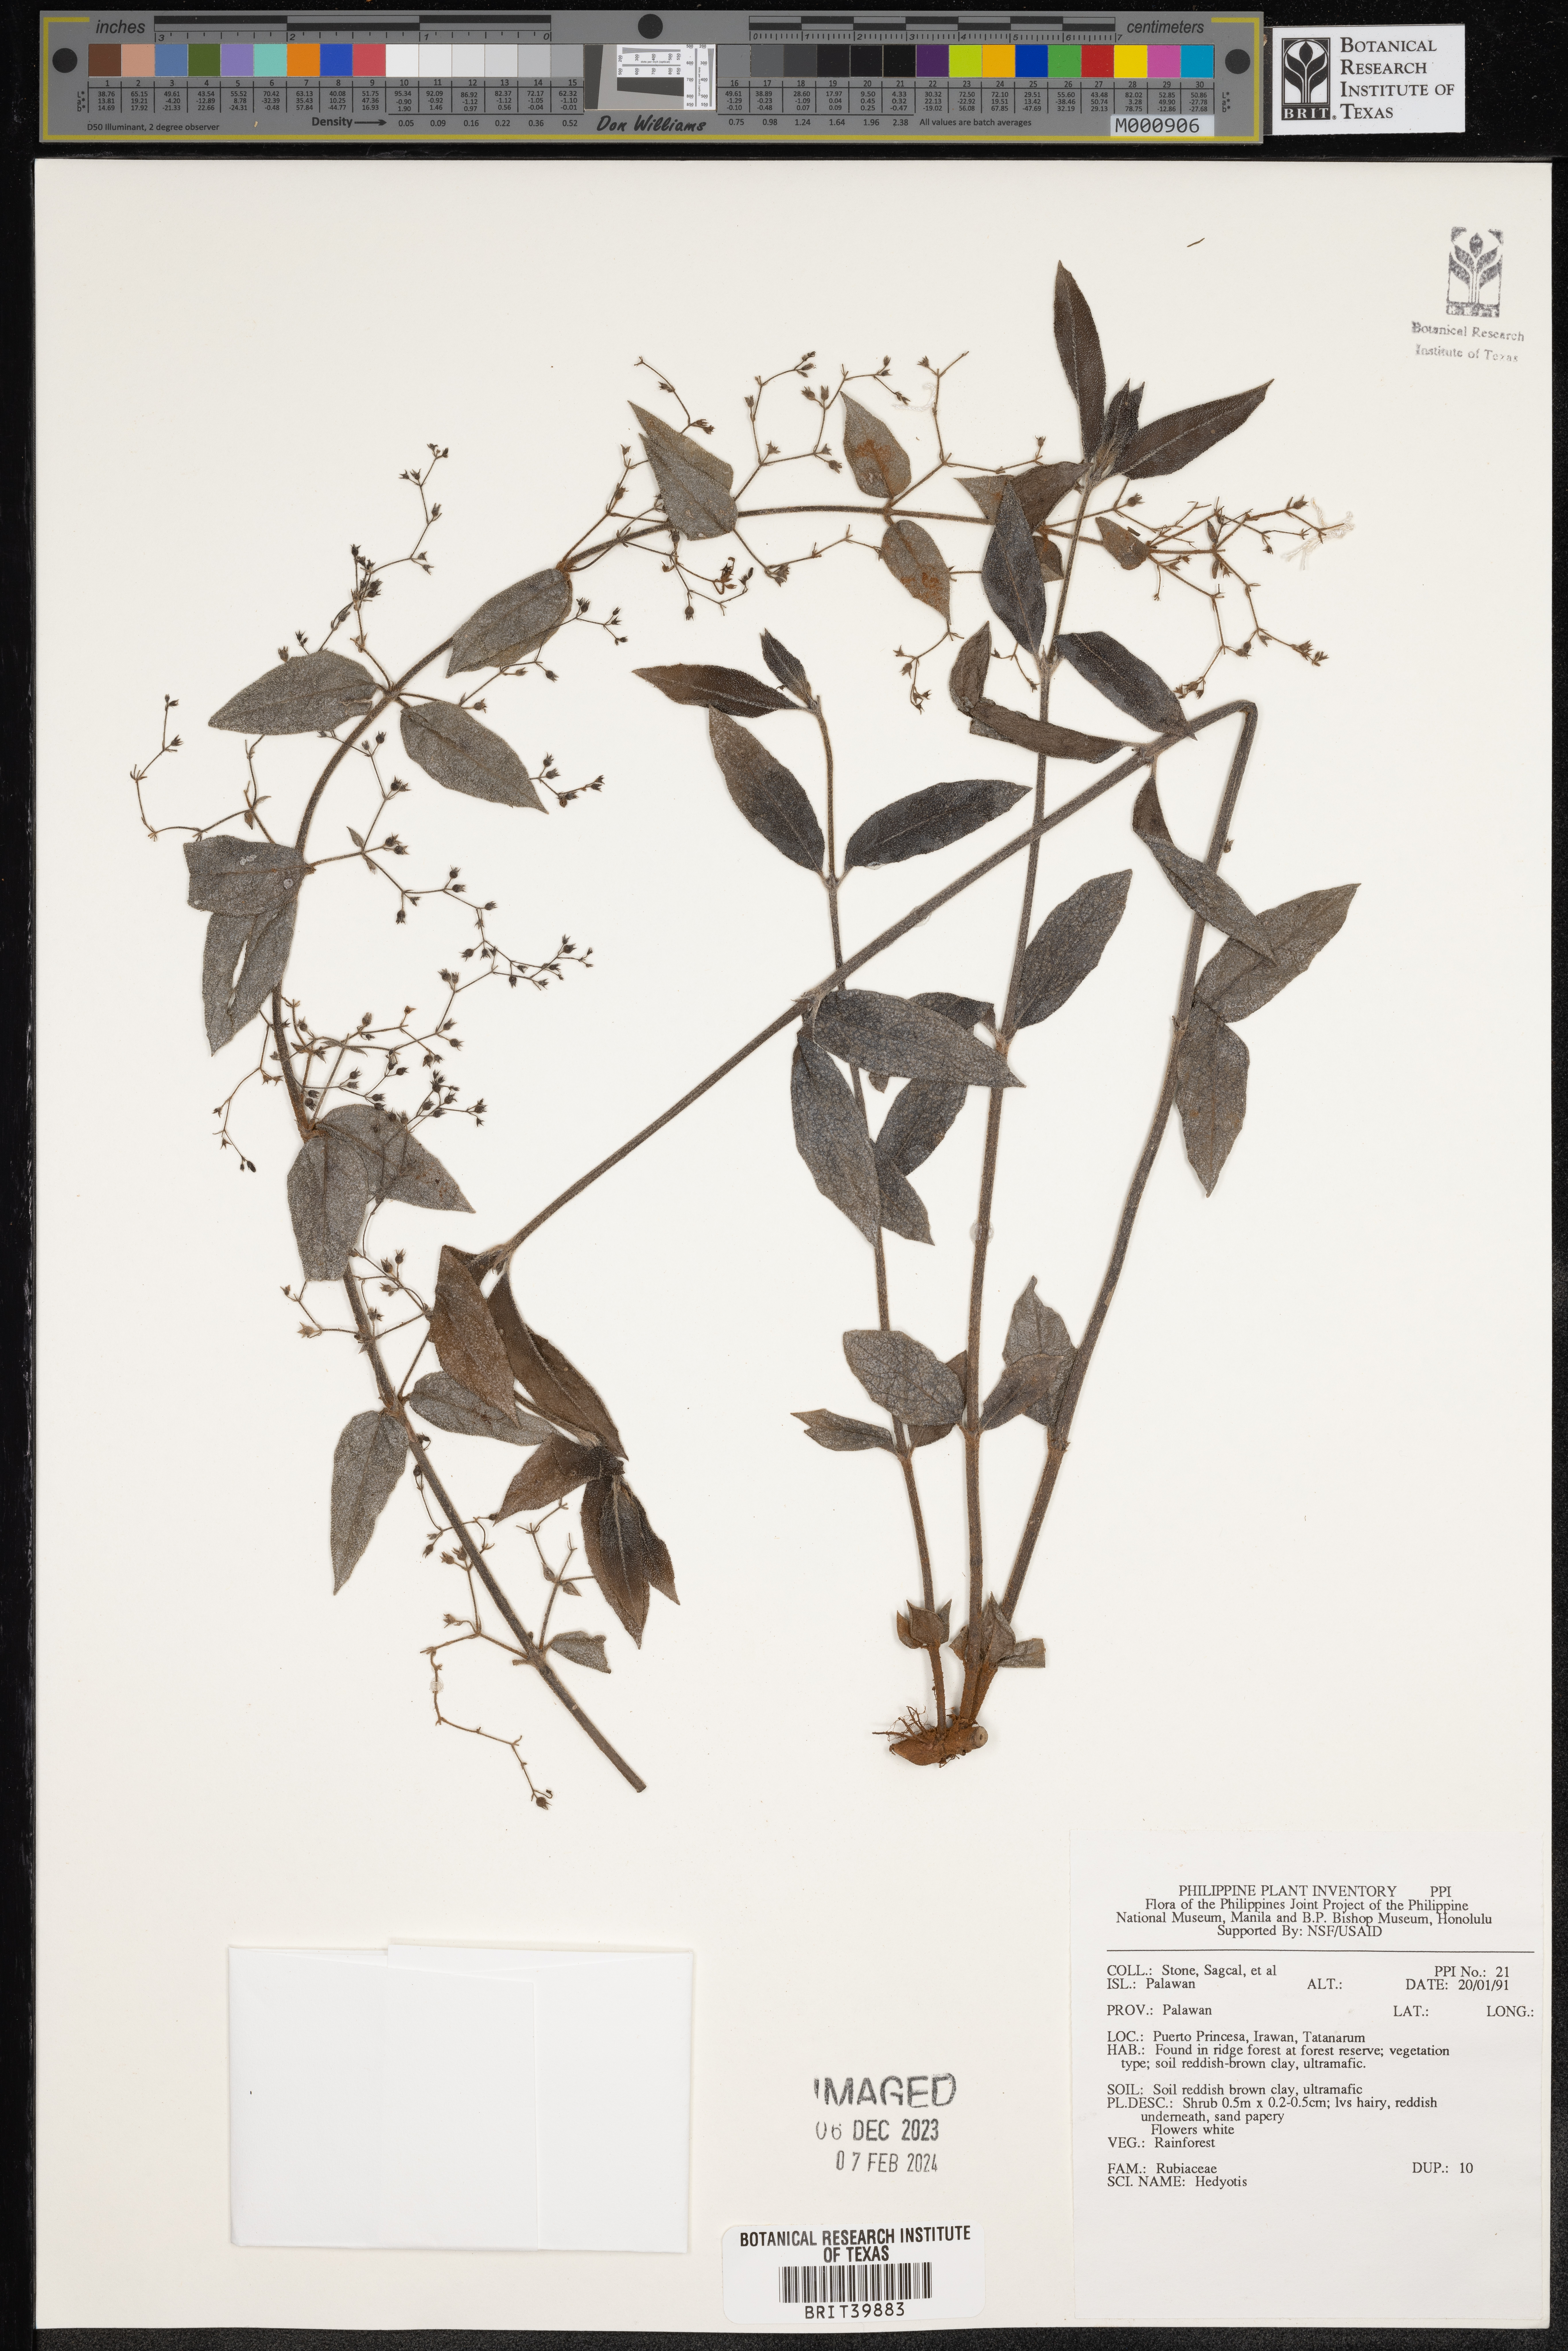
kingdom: Plantae
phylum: Tracheophyta
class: Magnoliopsida
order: Gentianales
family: Rubiaceae
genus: Hedyotis
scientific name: Hedyotis
